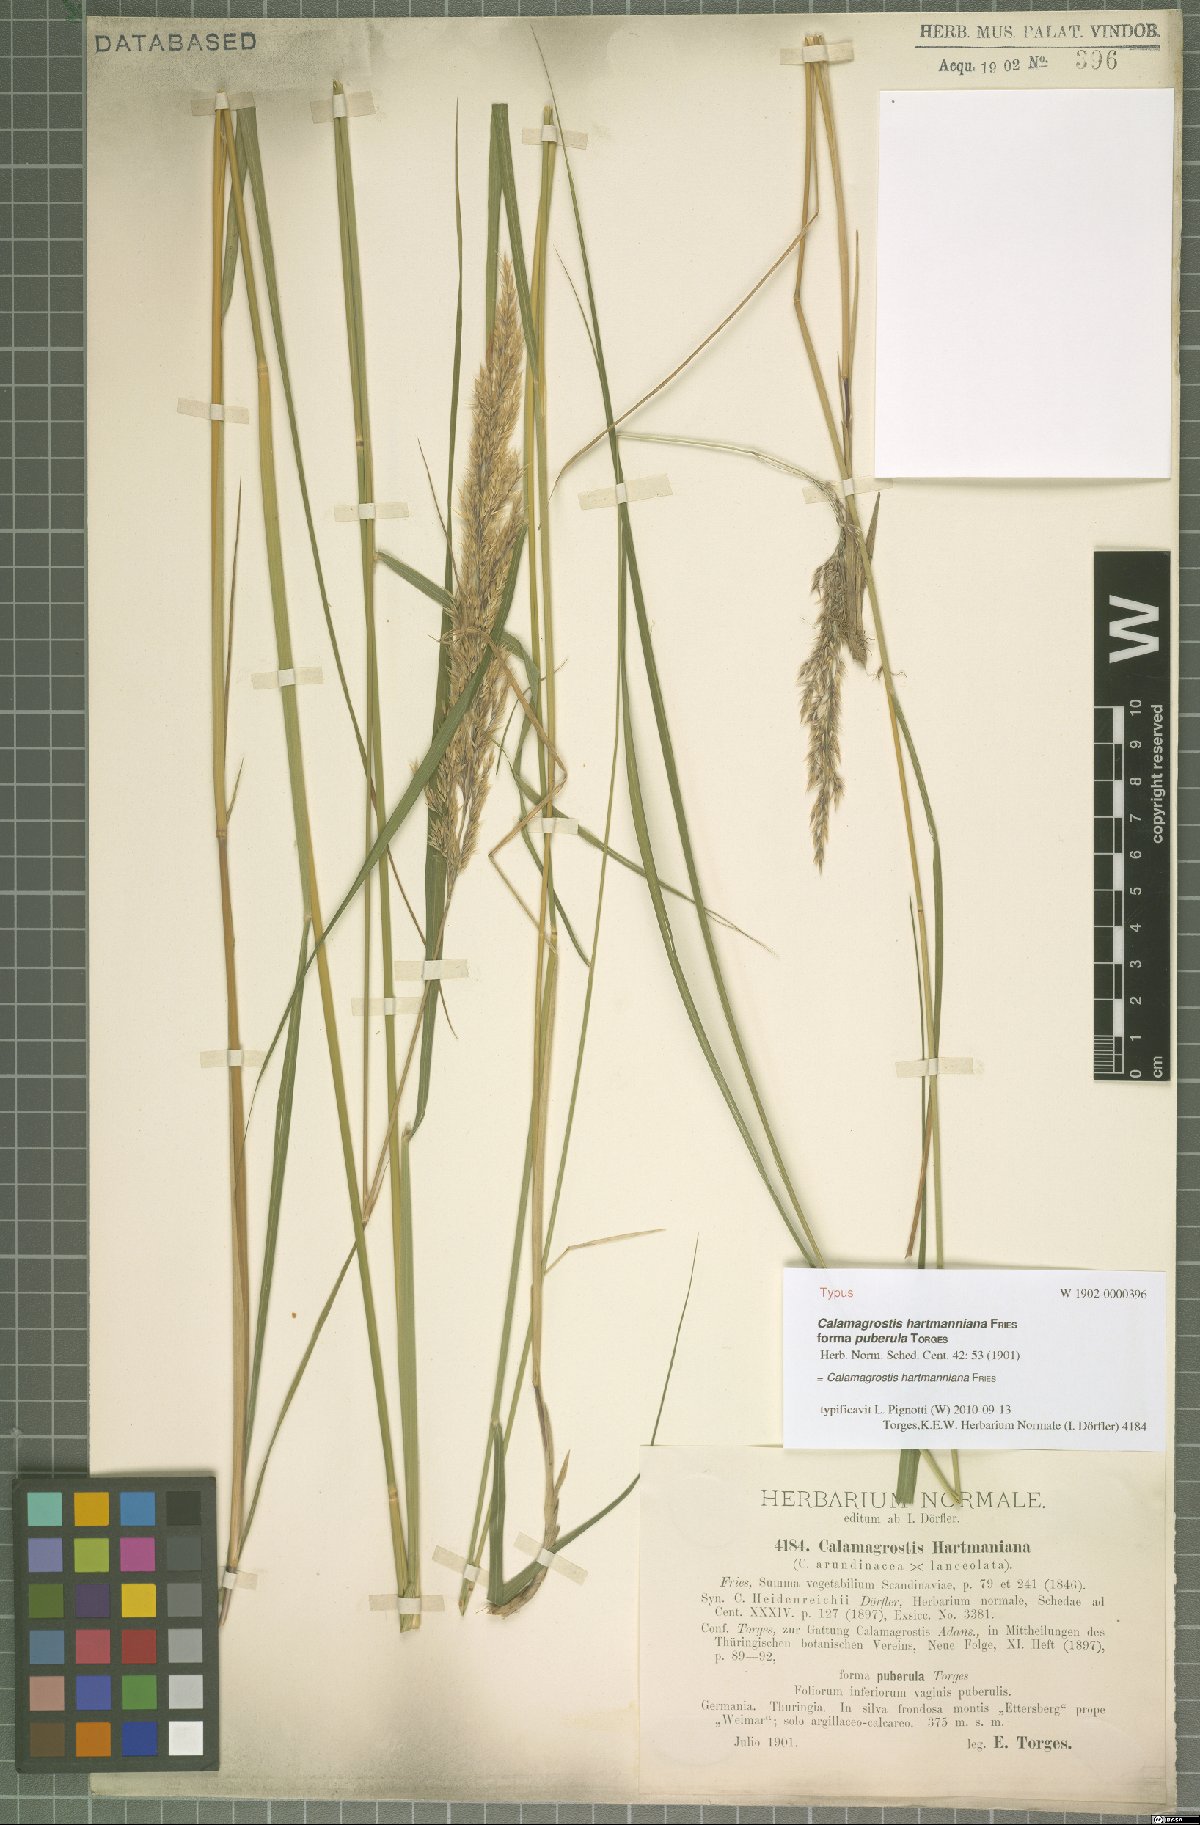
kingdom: Plantae
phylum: Tracheophyta
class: Liliopsida
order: Poales
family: Poaceae
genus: Calamagrostis
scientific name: Calamagrostis hartmaniana
